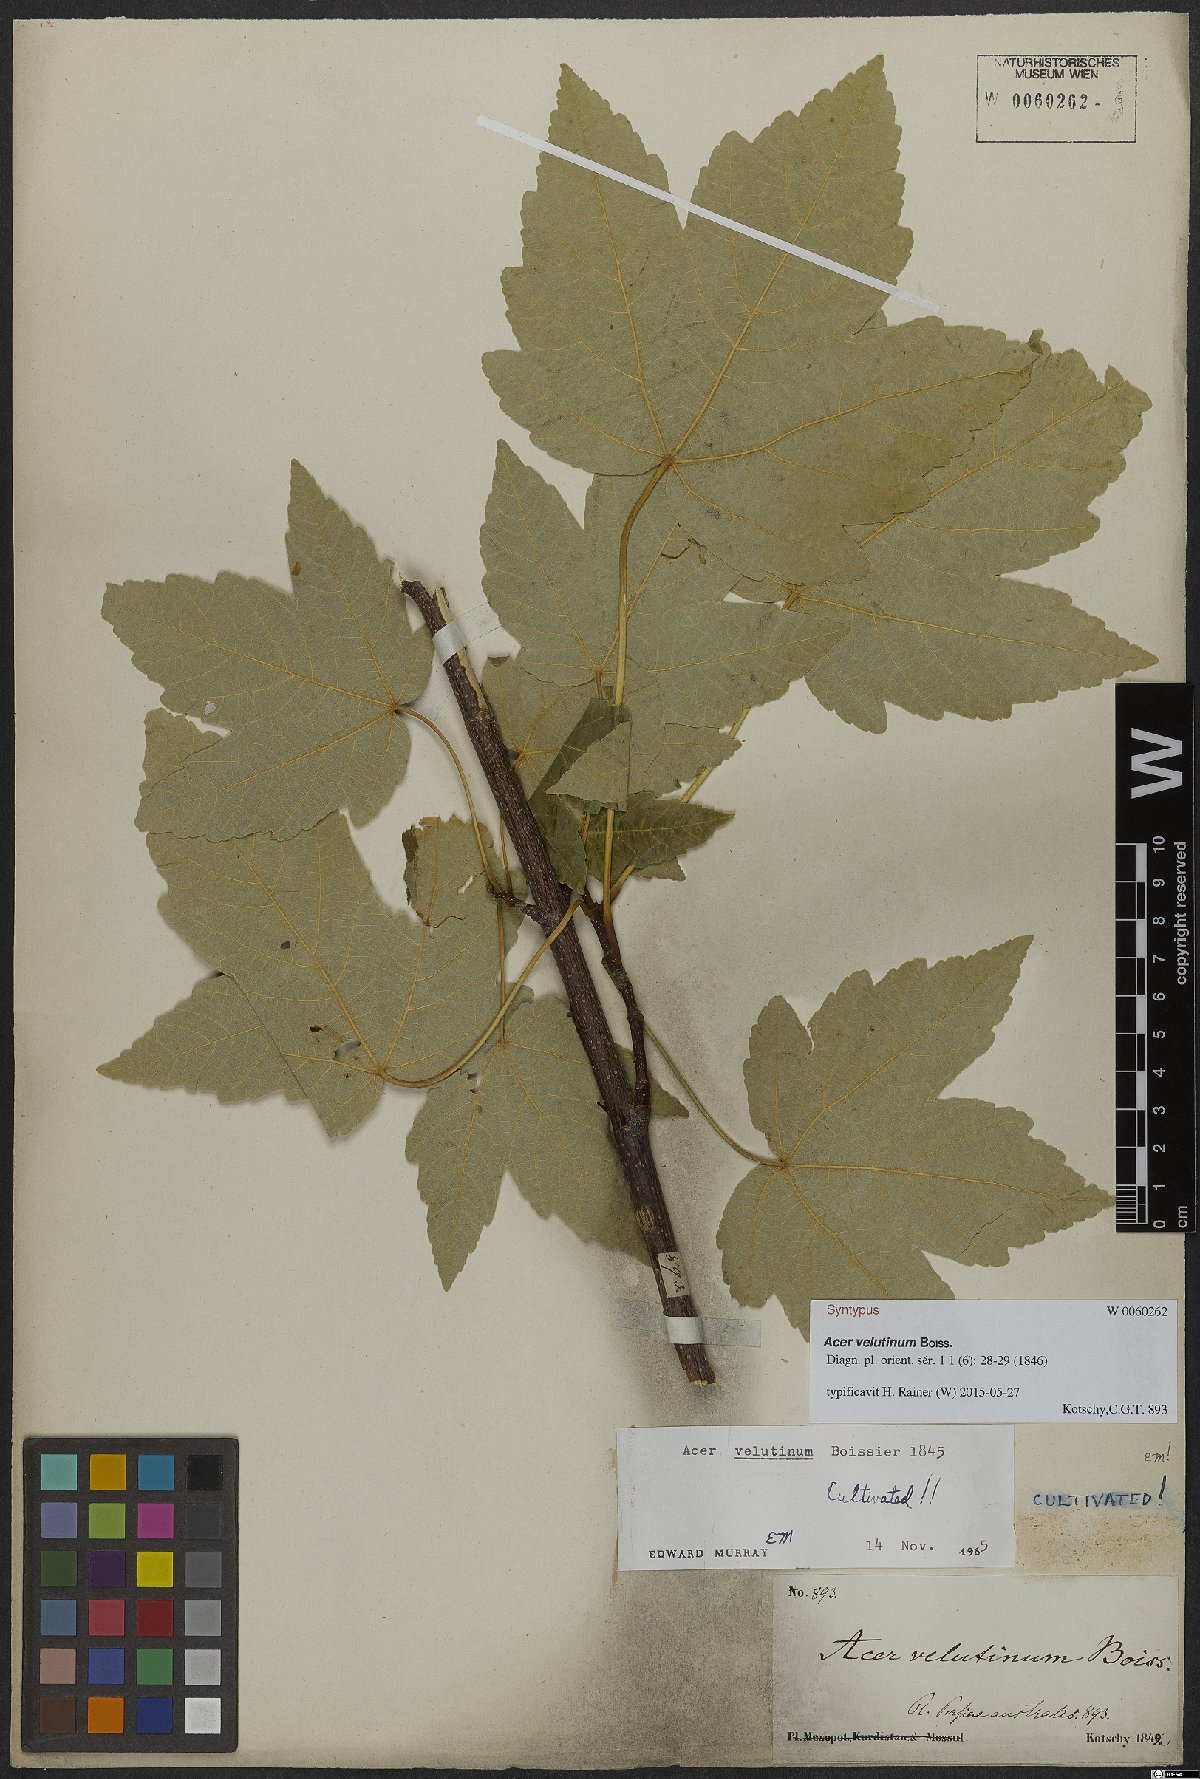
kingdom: Plantae
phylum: Tracheophyta
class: Magnoliopsida
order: Sapindales
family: Sapindaceae
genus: Acer
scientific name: Acer velutinum
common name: Velvet maple
